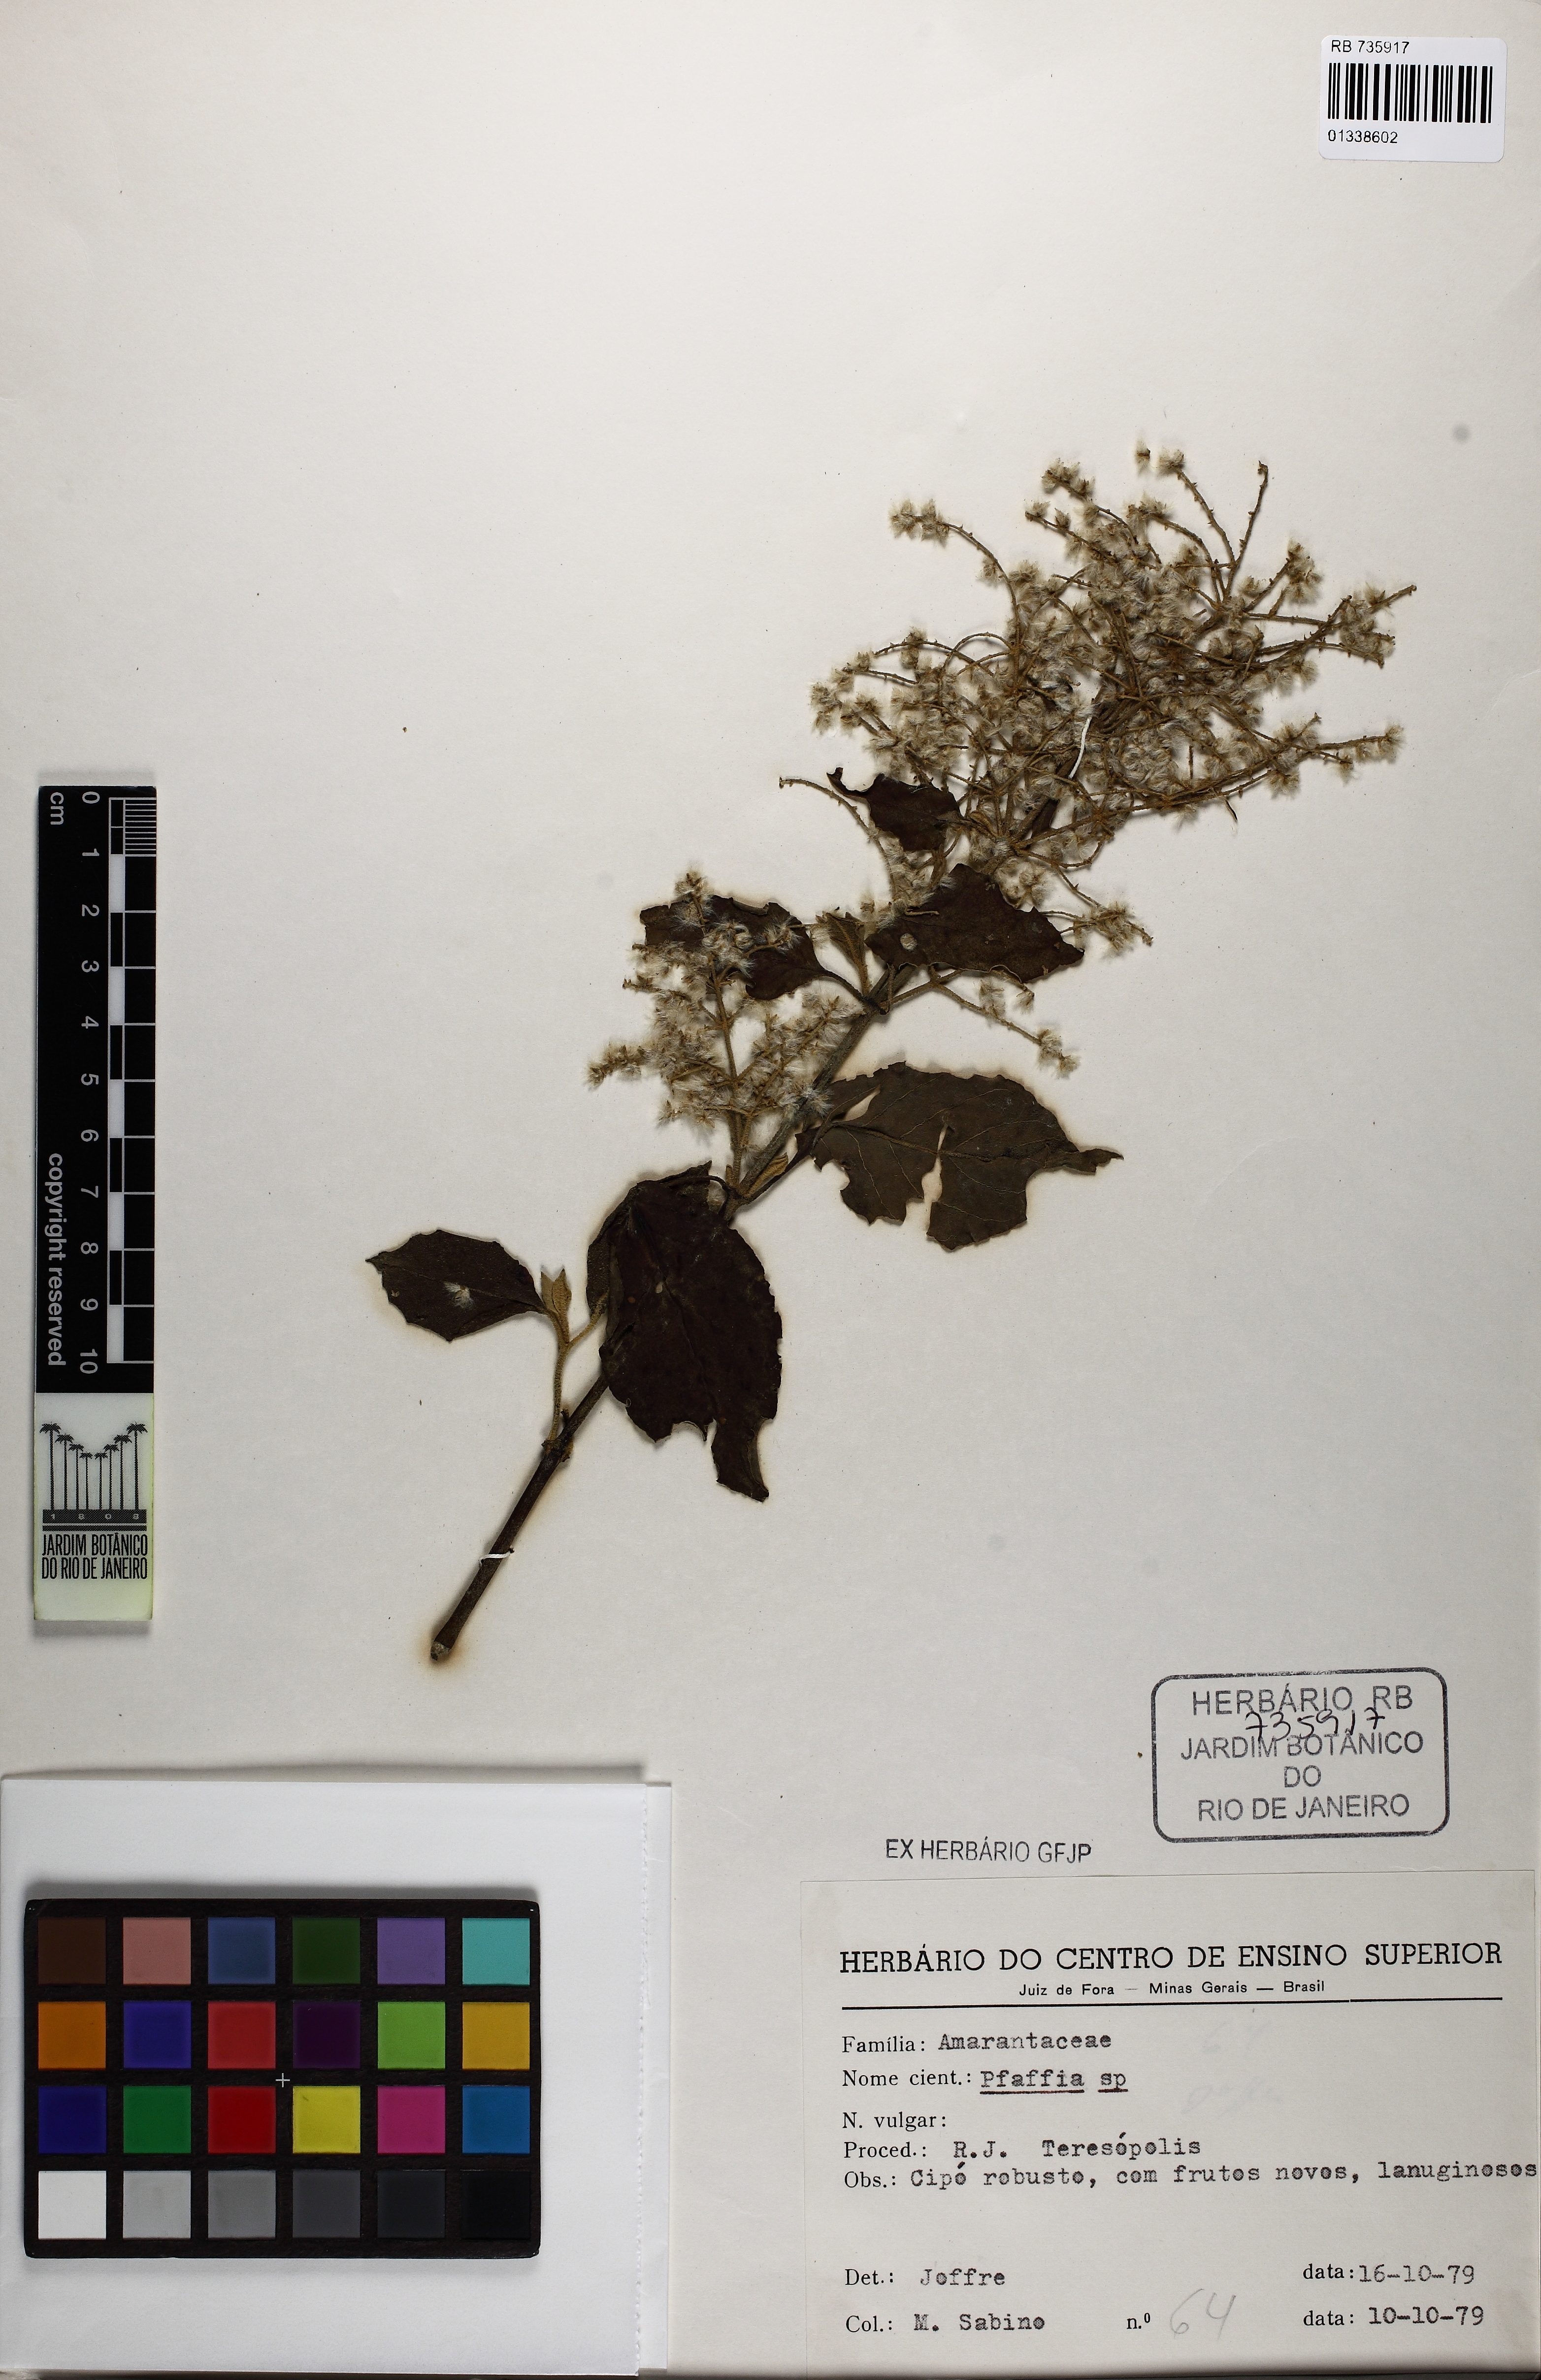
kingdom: Plantae
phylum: Tracheophyta
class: Magnoliopsida
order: Caryophyllales
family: Amaranthaceae
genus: Pfaffia
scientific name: Pfaffia
